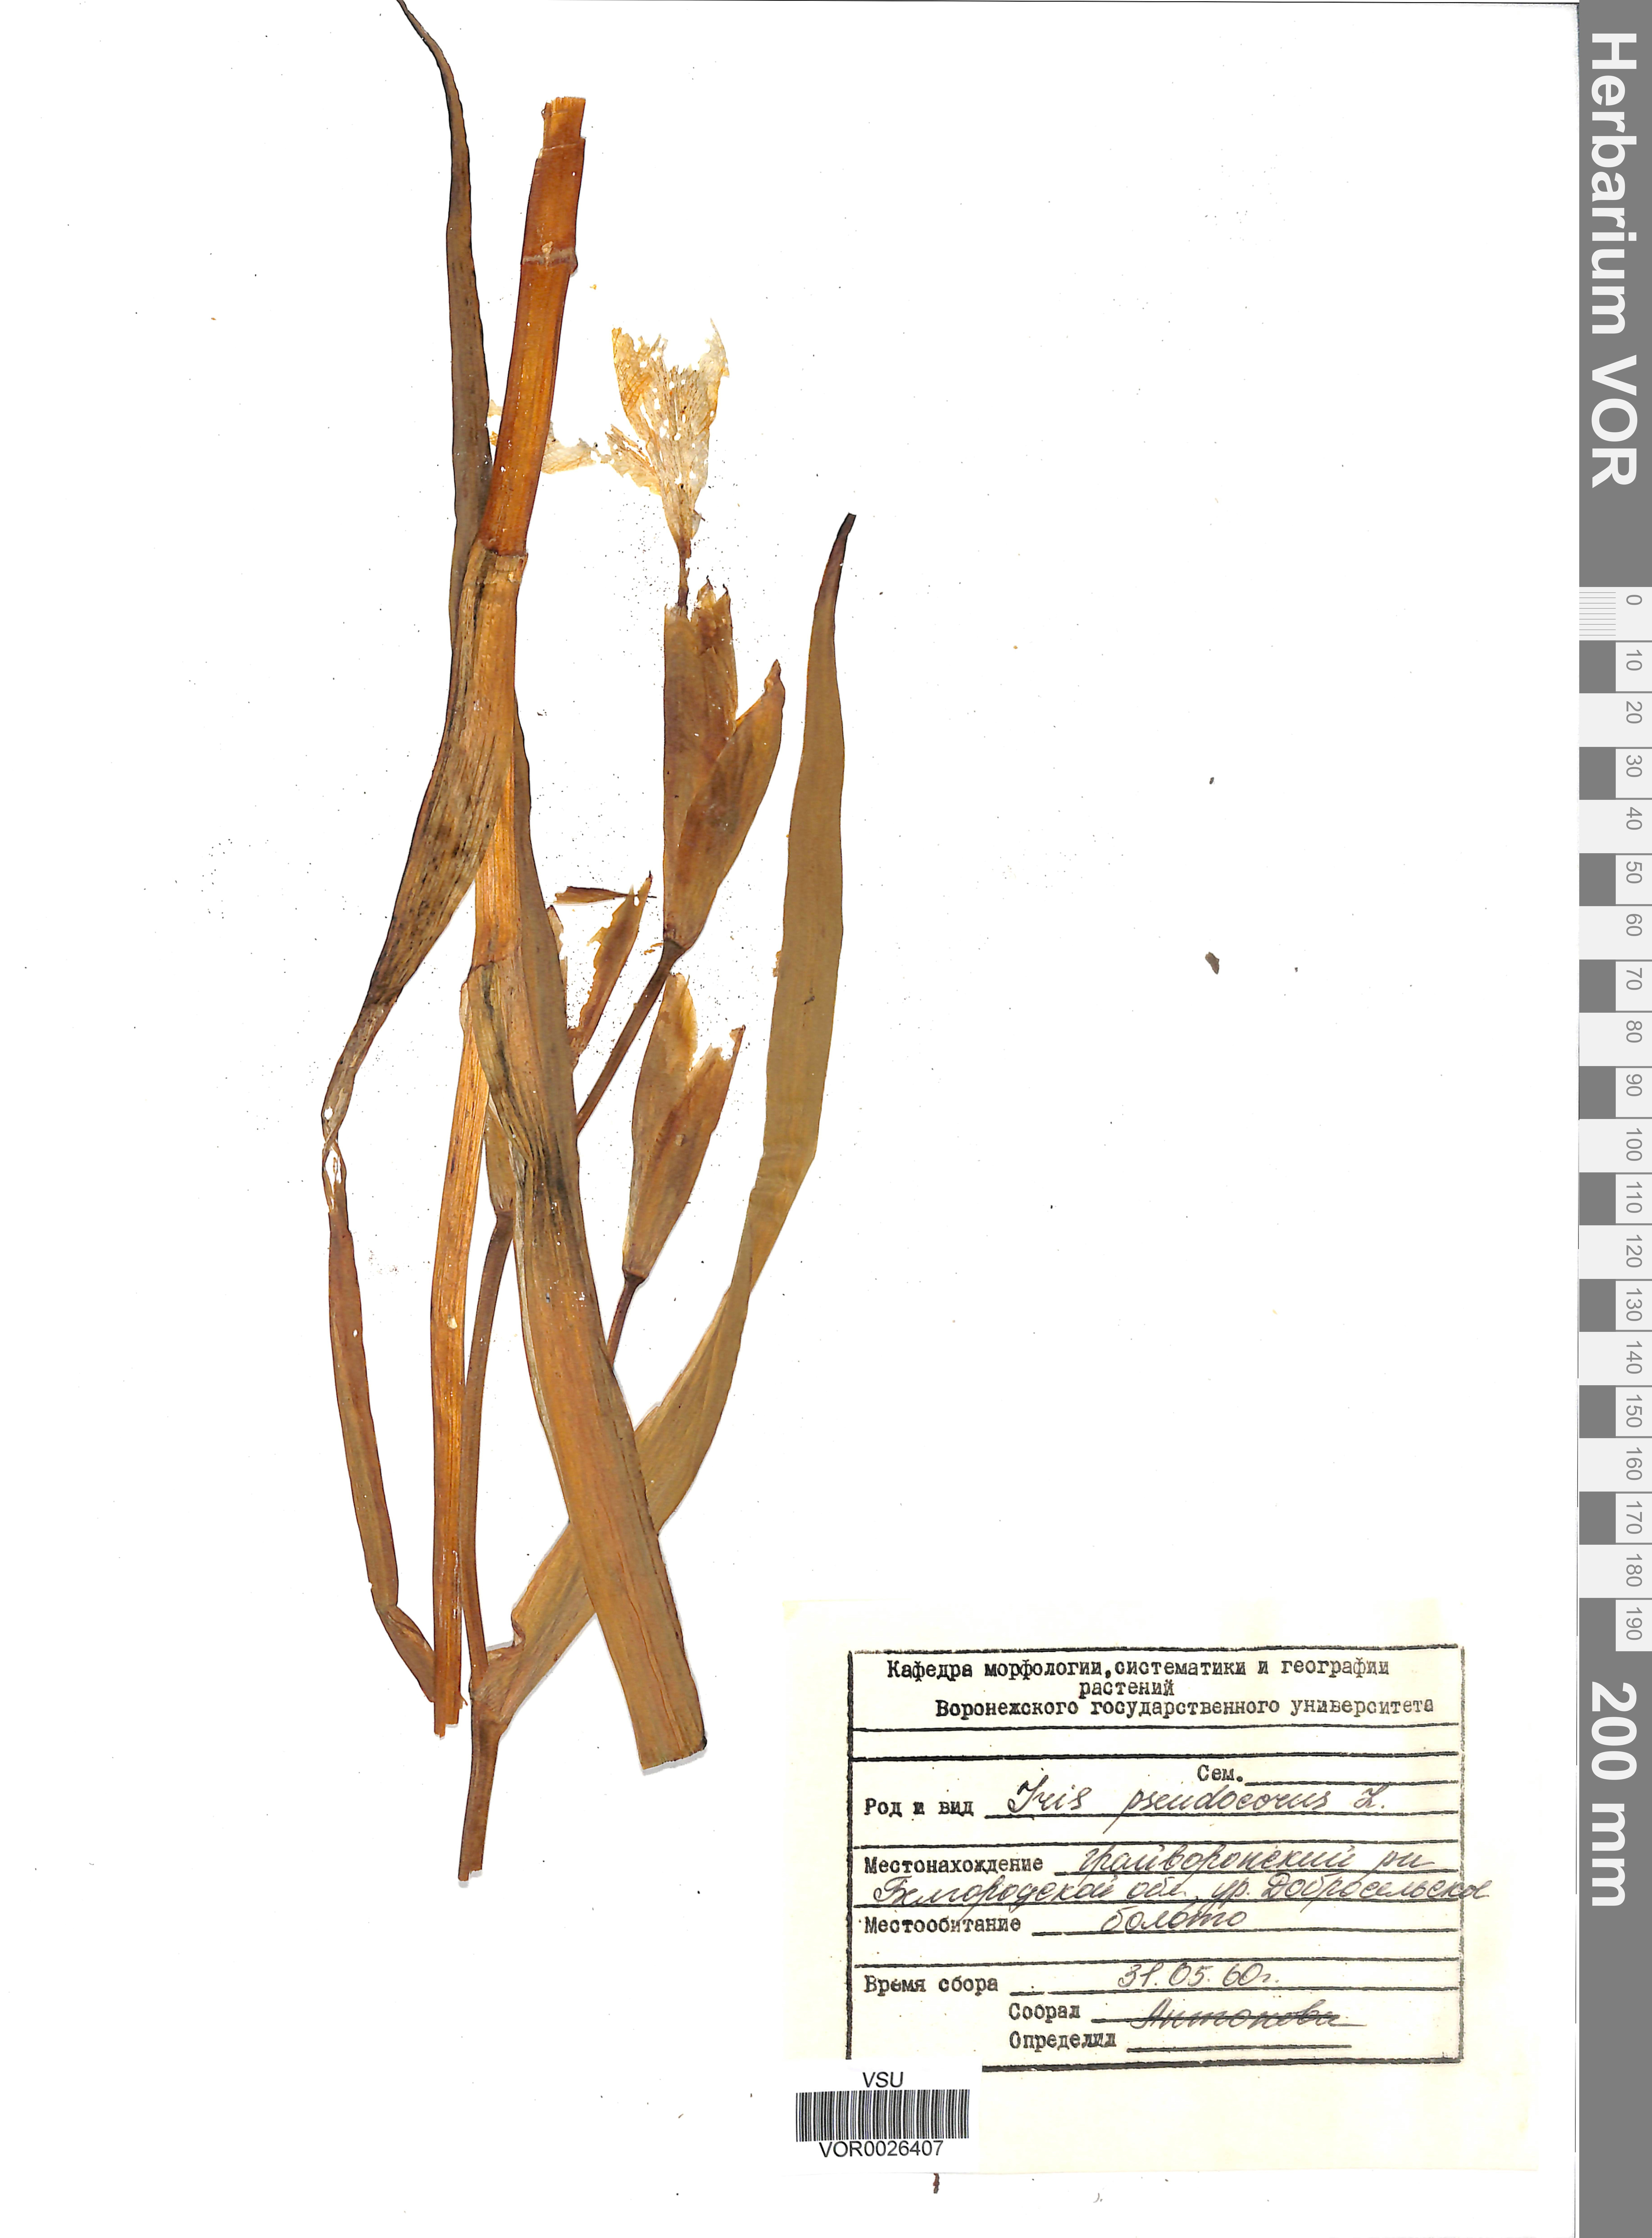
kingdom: Plantae
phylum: Tracheophyta
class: Liliopsida
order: Asparagales
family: Iridaceae
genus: Iris
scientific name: Iris pseudacorus
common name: Yellow flag
